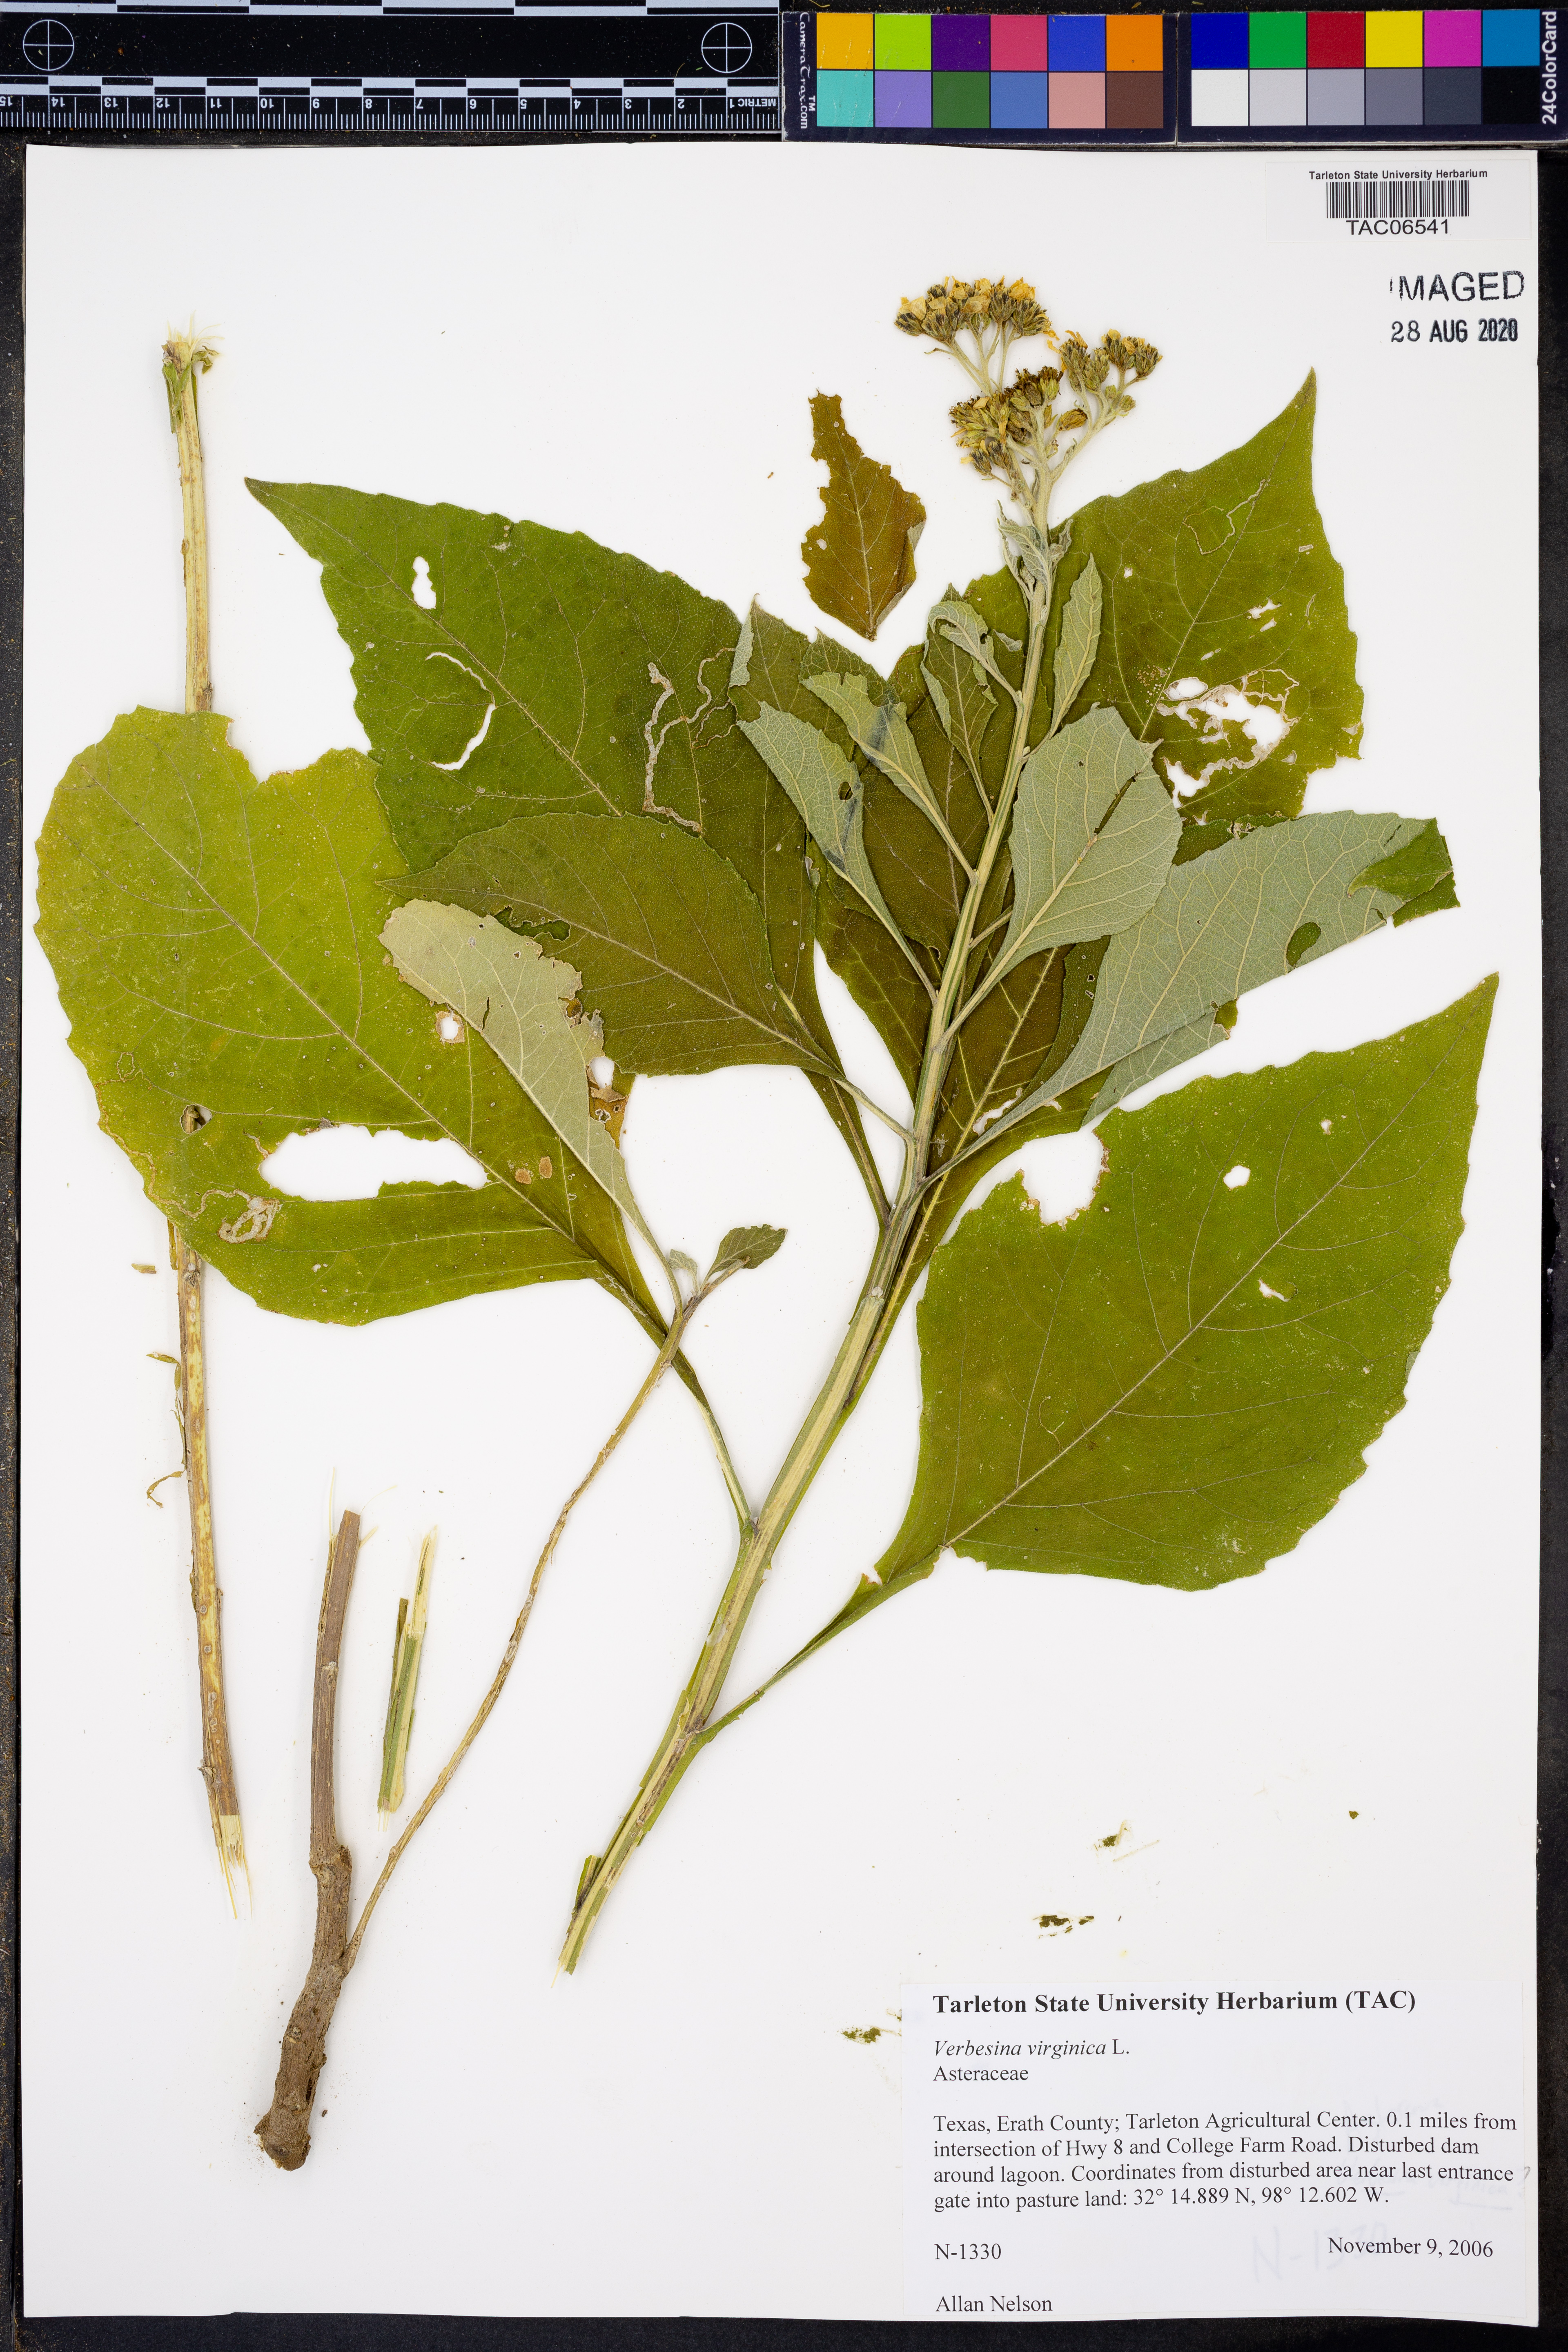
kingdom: Plantae
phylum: Tracheophyta
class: Magnoliopsida
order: Asterales
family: Asteraceae
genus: Verbesina
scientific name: Verbesina virginica
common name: Frostweed
